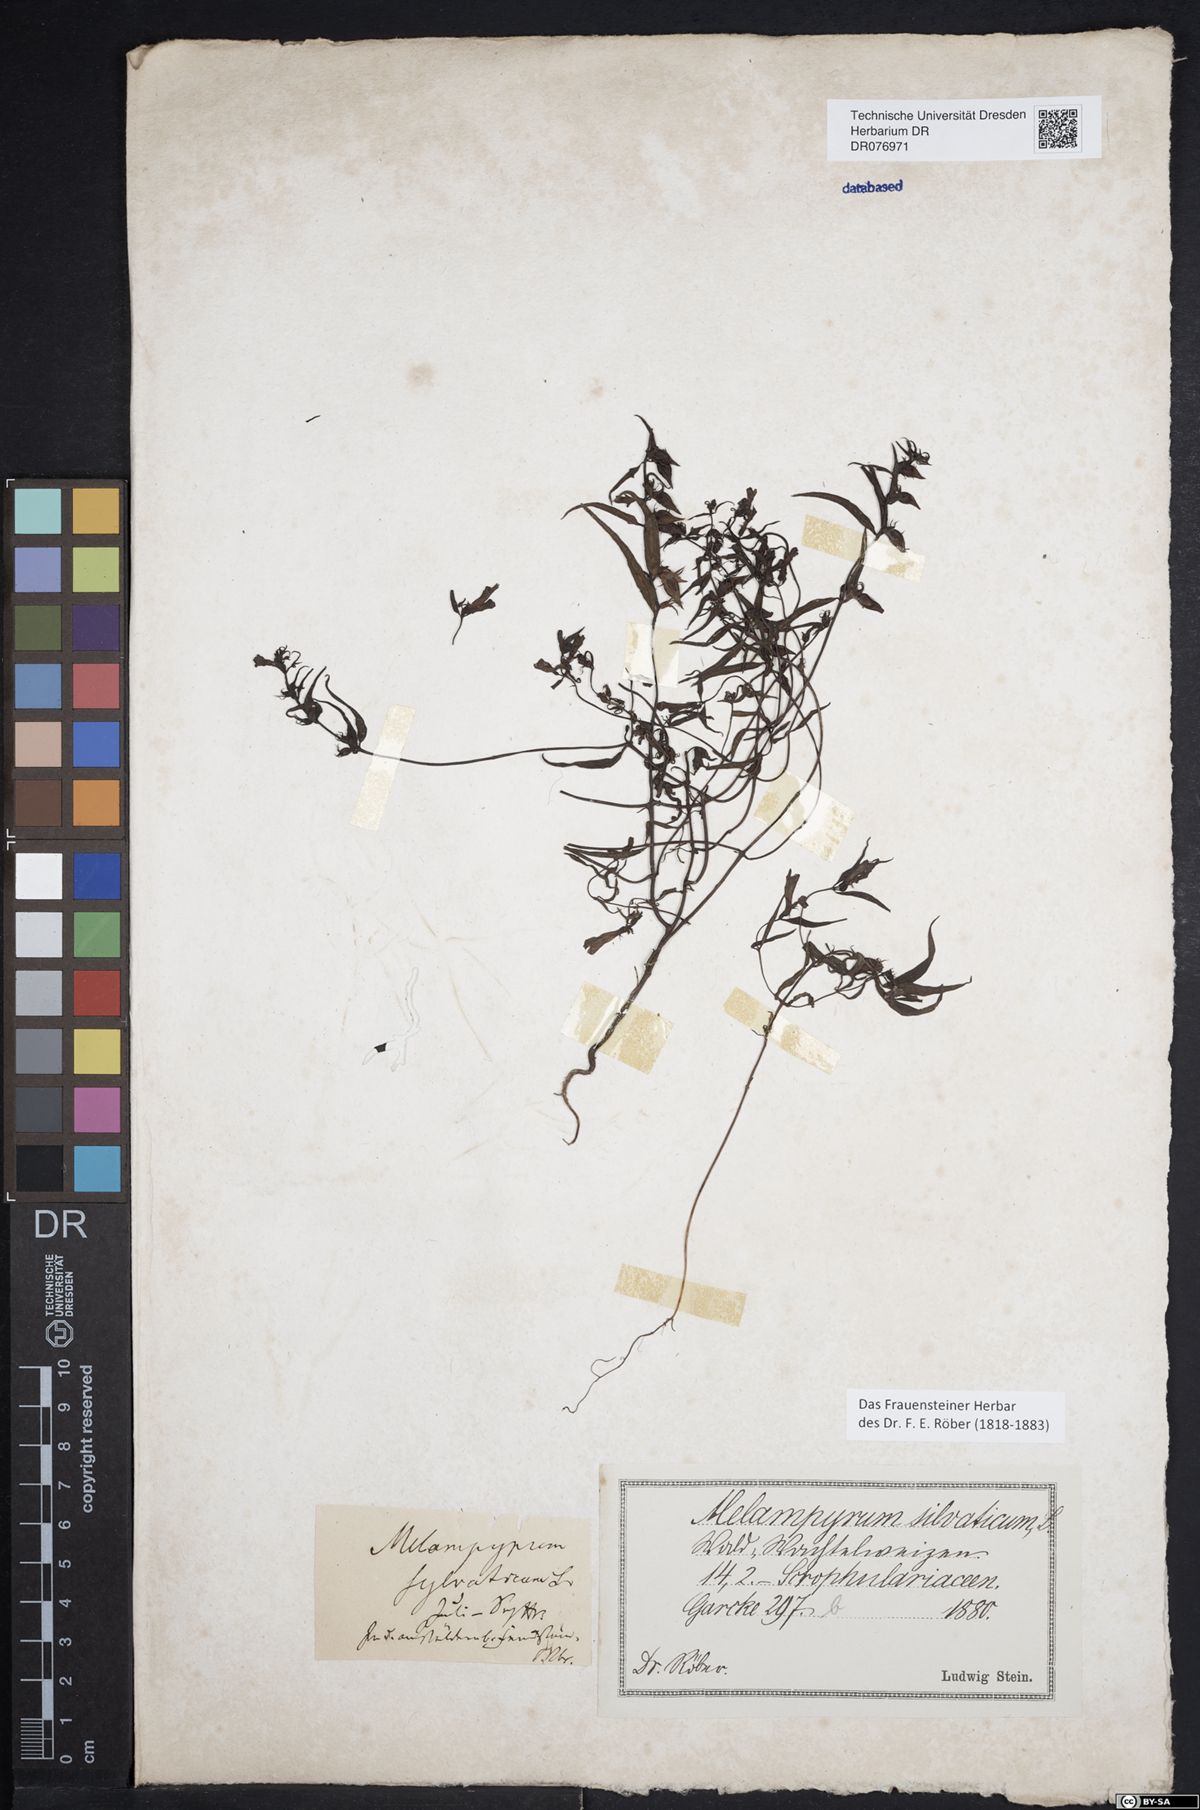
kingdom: Plantae
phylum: Tracheophyta
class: Magnoliopsida
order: Lamiales
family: Orobanchaceae
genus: Melampyrum
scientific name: Melampyrum sylvaticum
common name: Small cow-wheat
